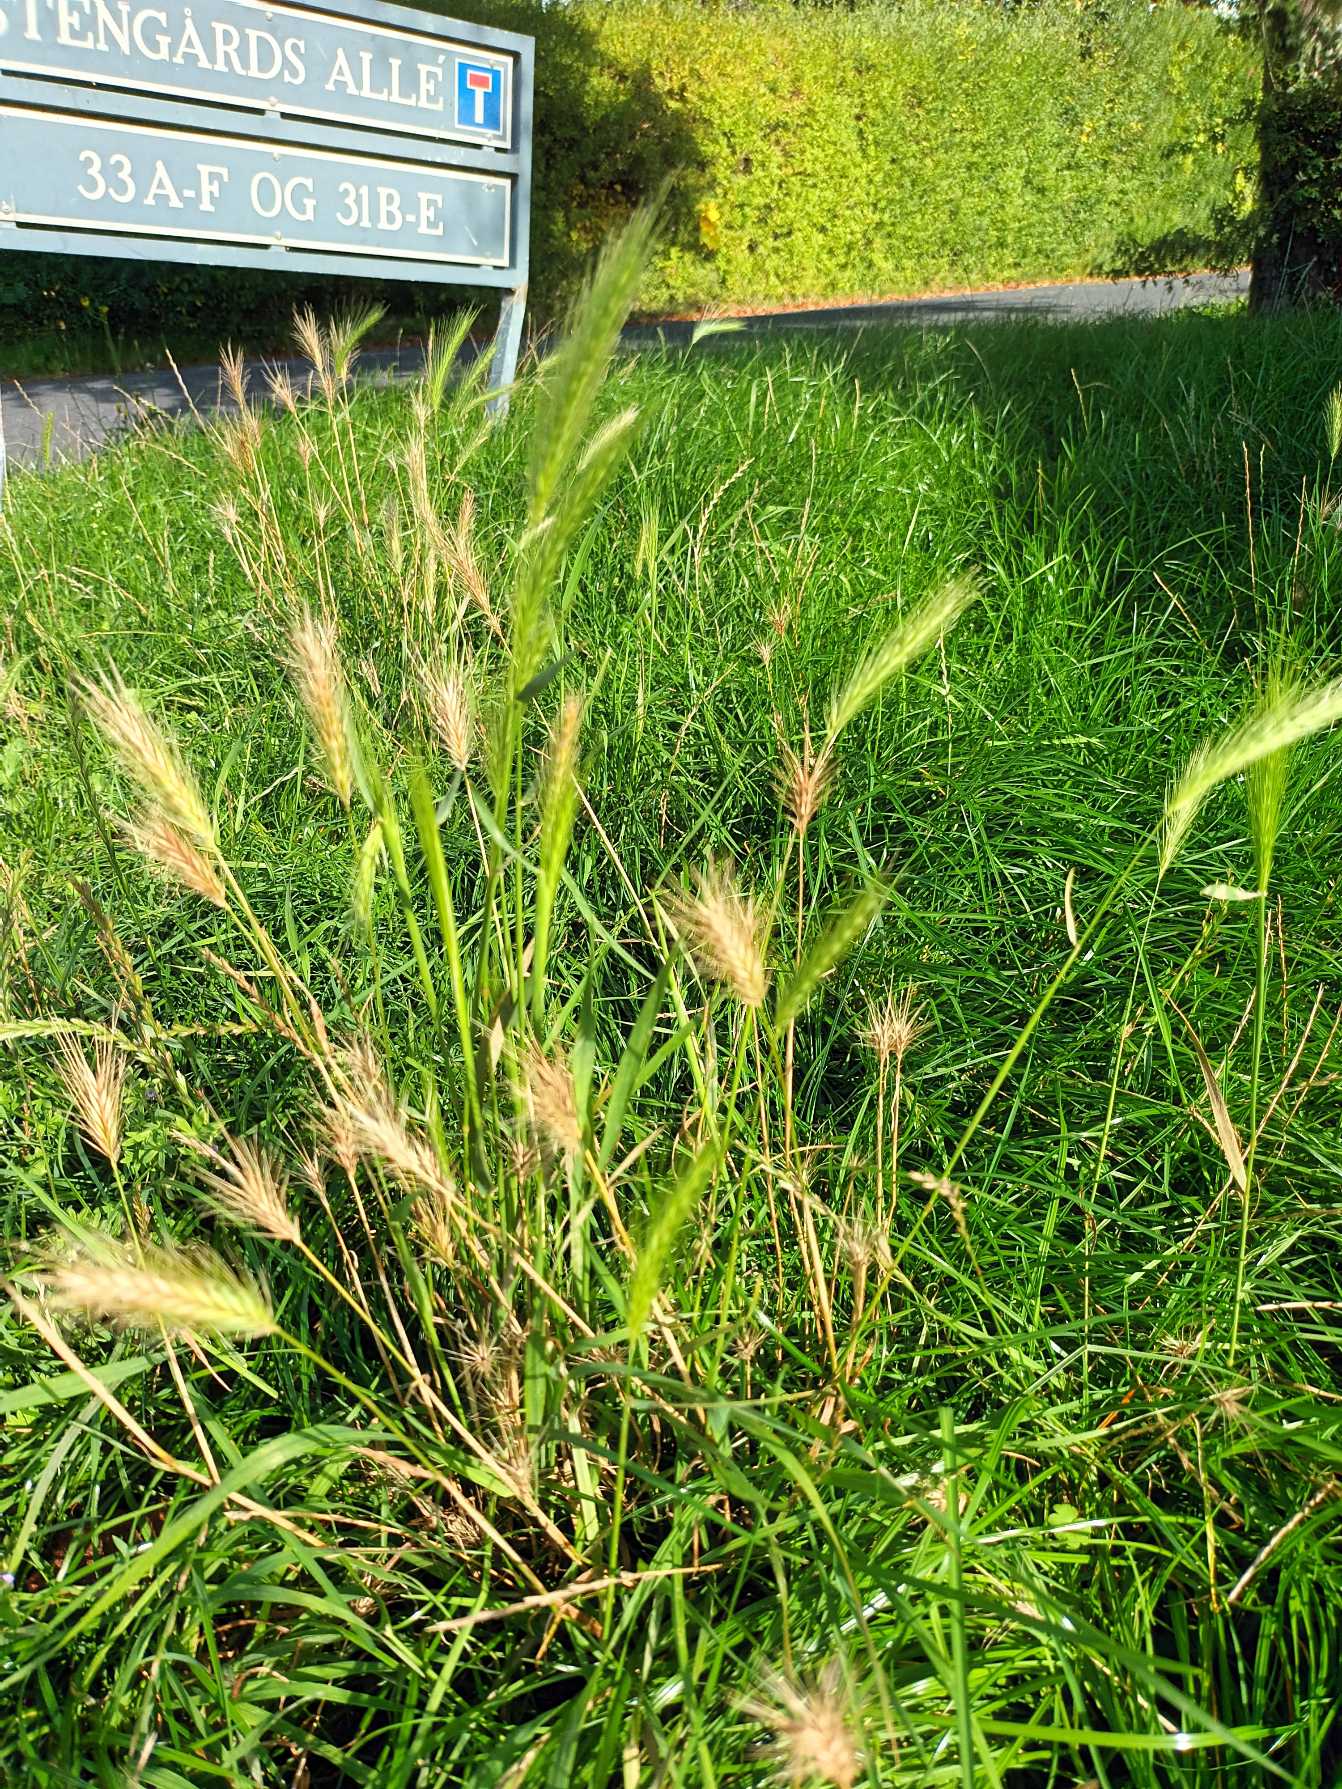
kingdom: Plantae
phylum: Tracheophyta
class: Liliopsida
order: Poales
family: Poaceae
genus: Hordeum
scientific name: Hordeum murinum
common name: Gold byg
